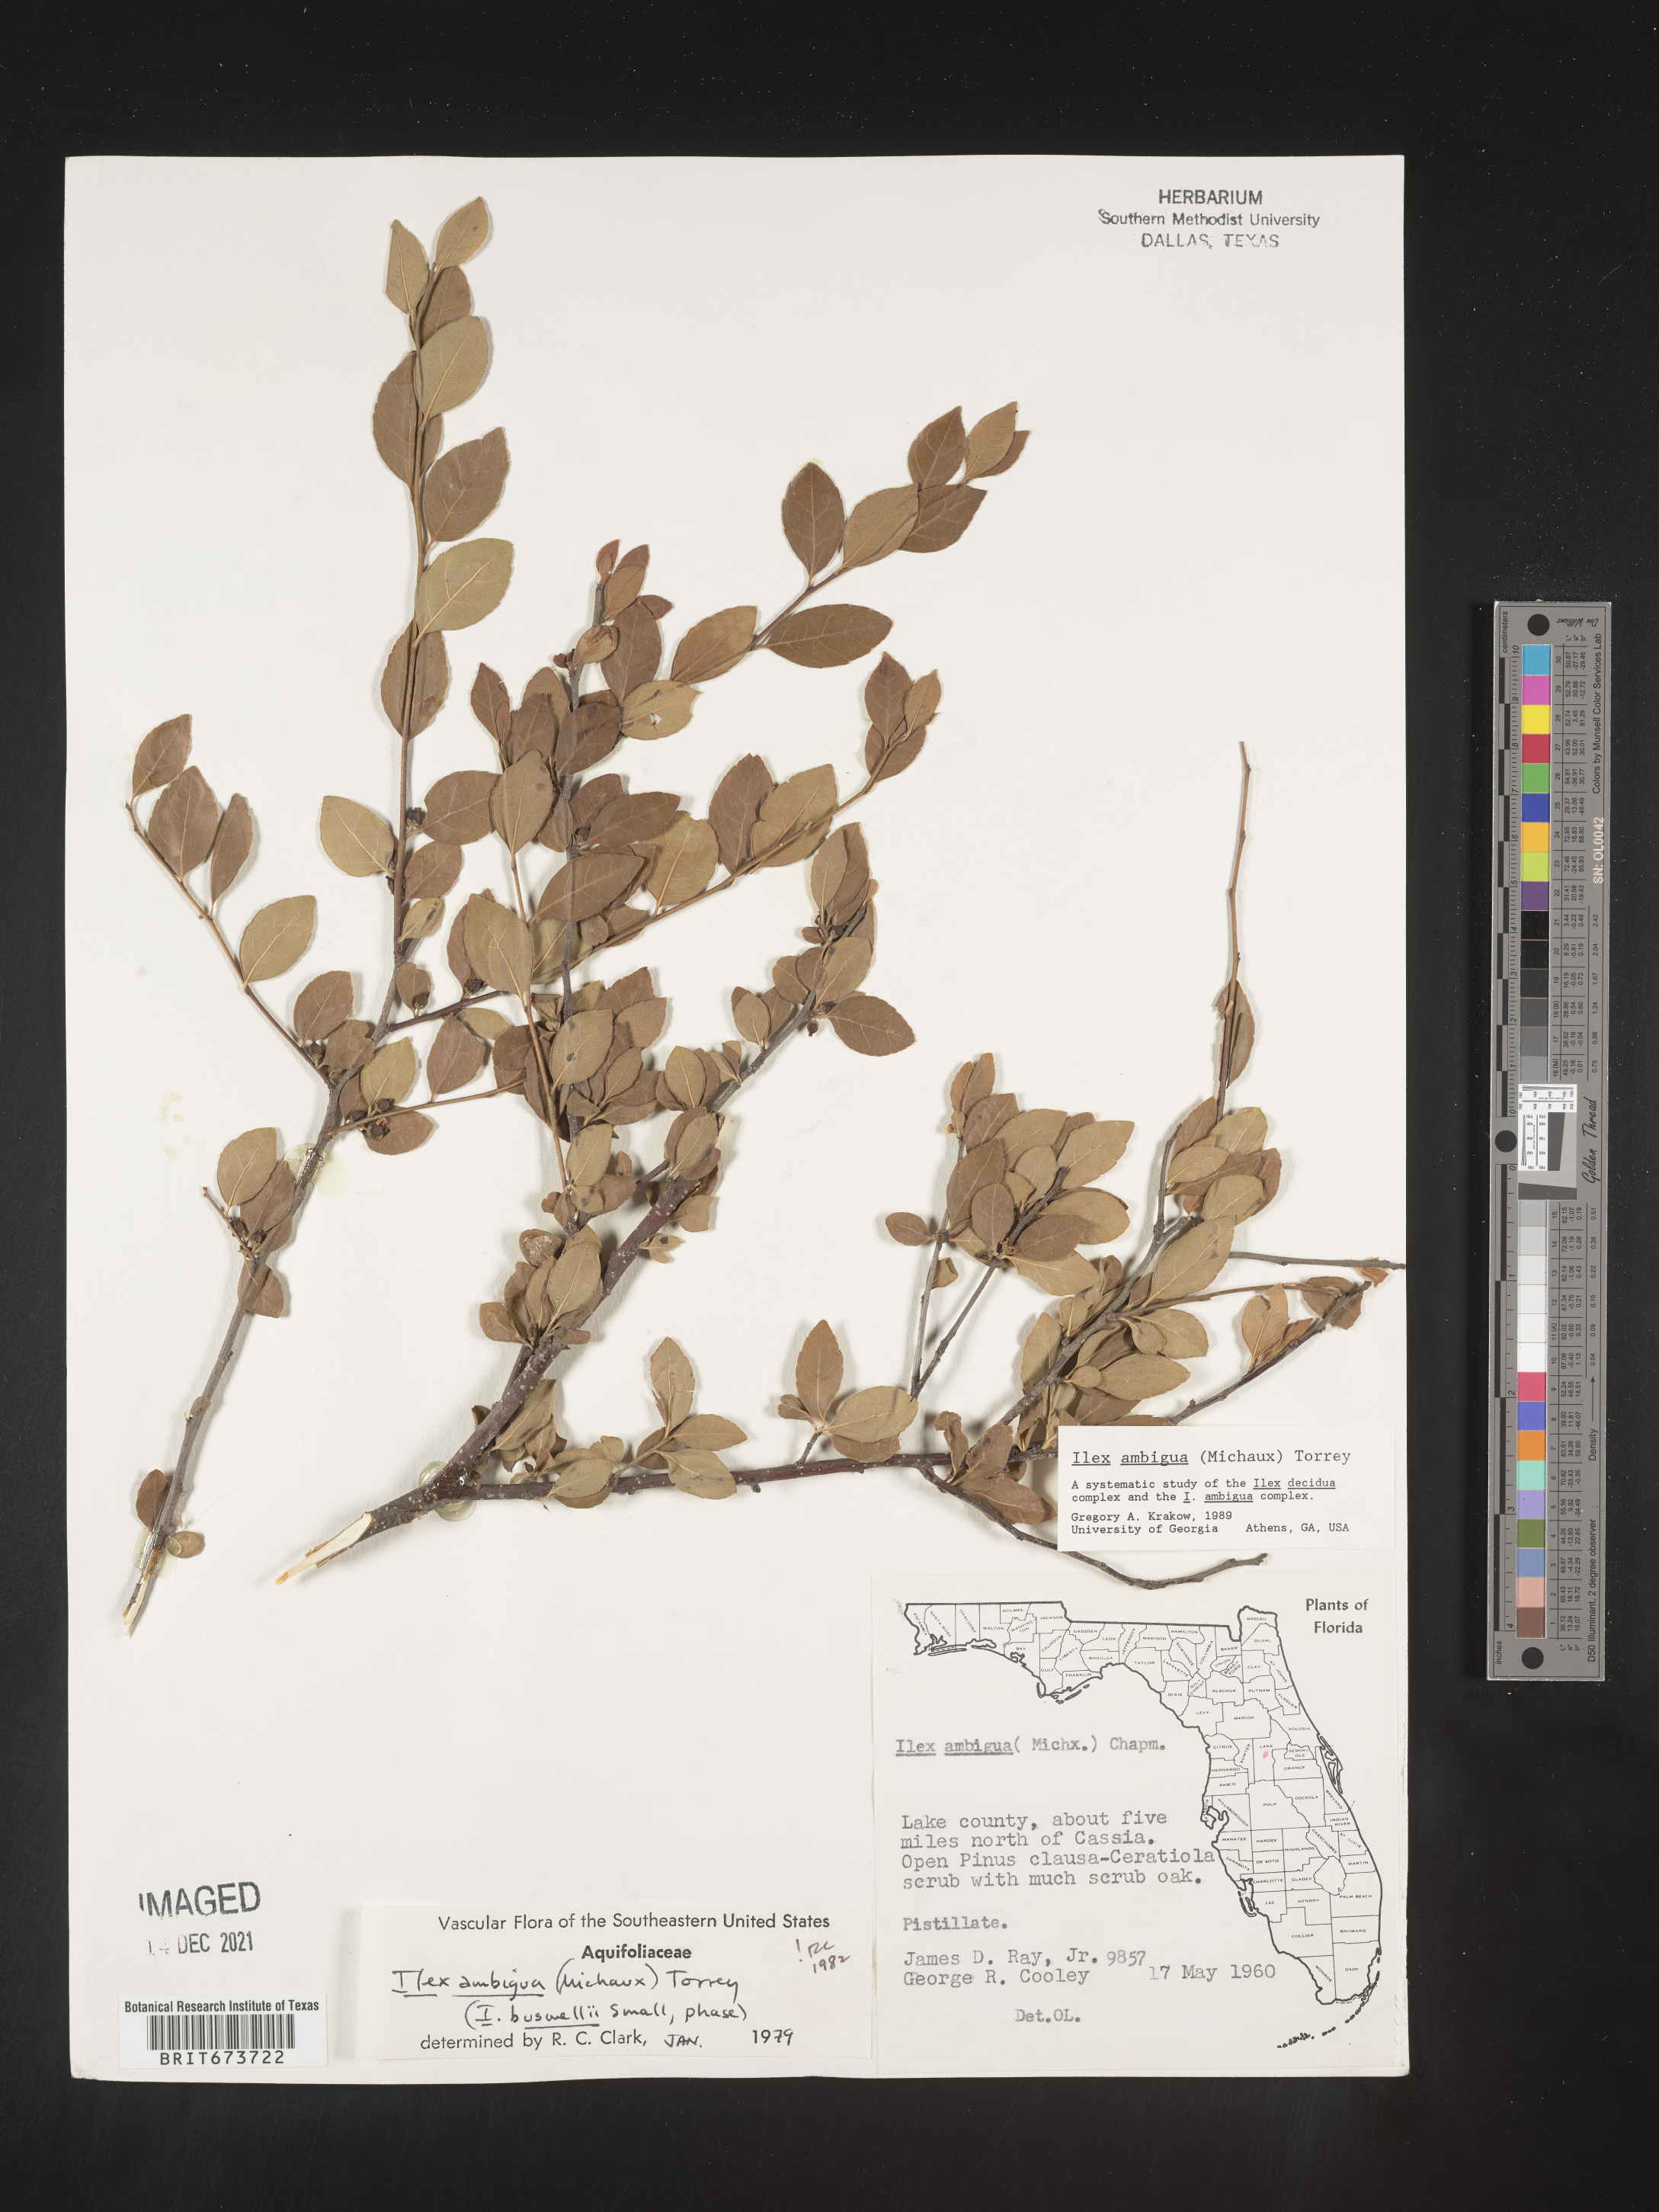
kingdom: Plantae
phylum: Tracheophyta
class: Magnoliopsida
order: Aquifoliales
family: Aquifoliaceae
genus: Ilex
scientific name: Ilex ambigua
